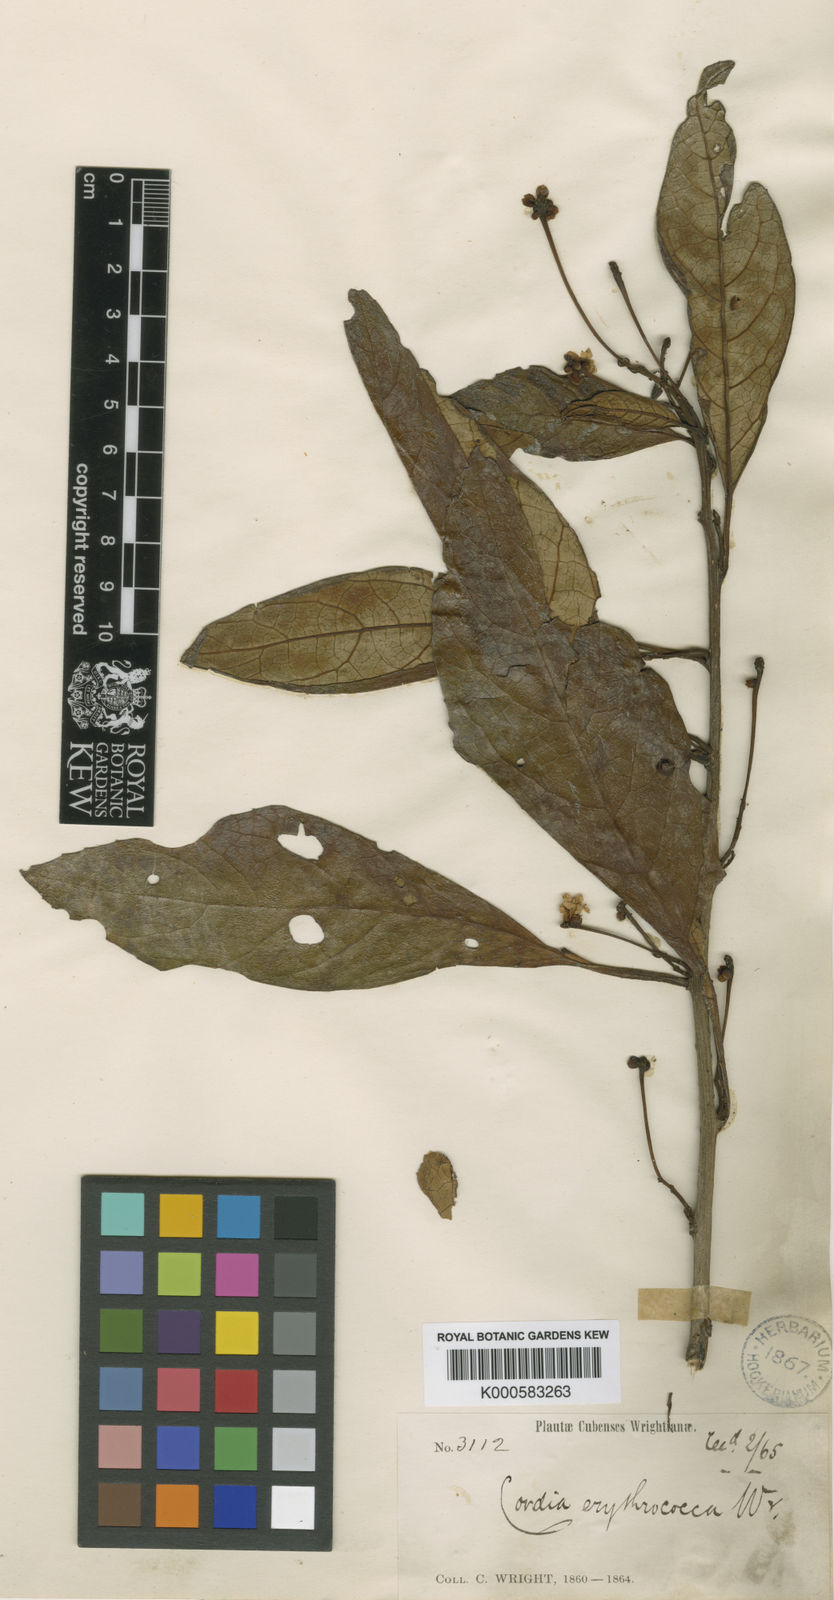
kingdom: Plantae
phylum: Tracheophyta
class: Magnoliopsida
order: Boraginales
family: Cordiaceae
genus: Varronia
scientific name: Varronia erythrococca
